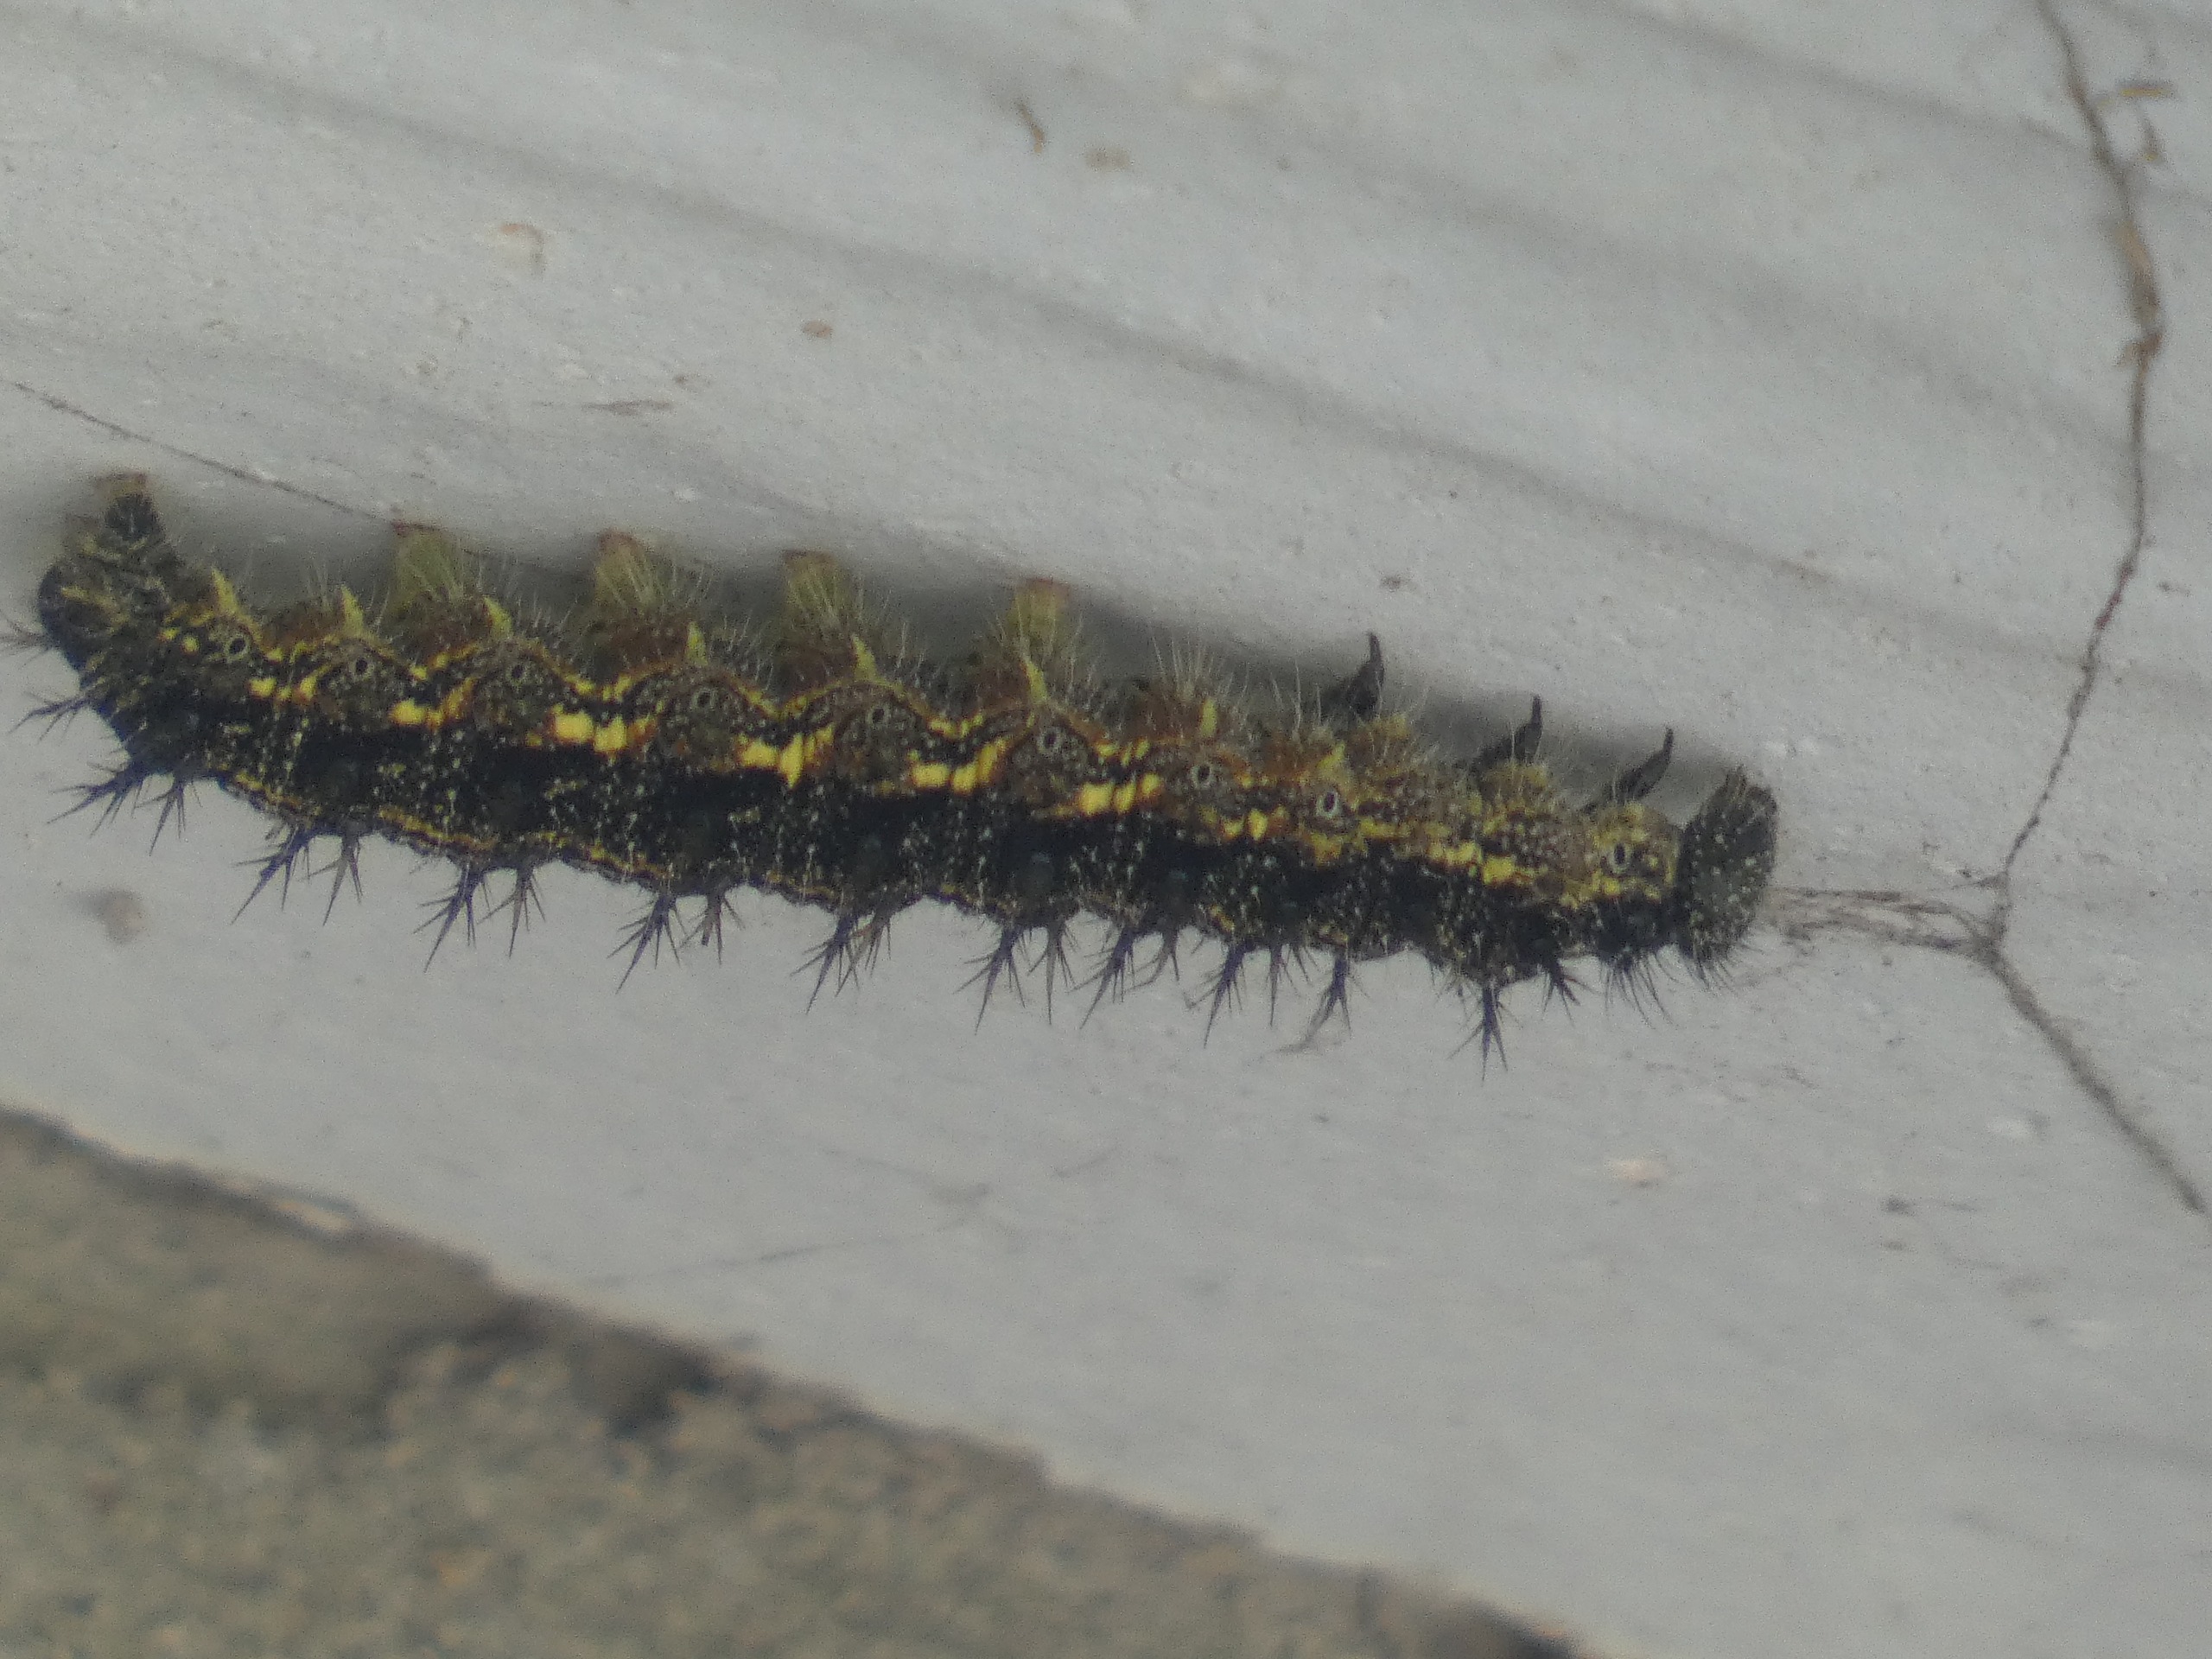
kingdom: Animalia
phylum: Arthropoda
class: Insecta
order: Lepidoptera
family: Nymphalidae
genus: Aglais
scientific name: Aglais urticae
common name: Nældens takvinge
